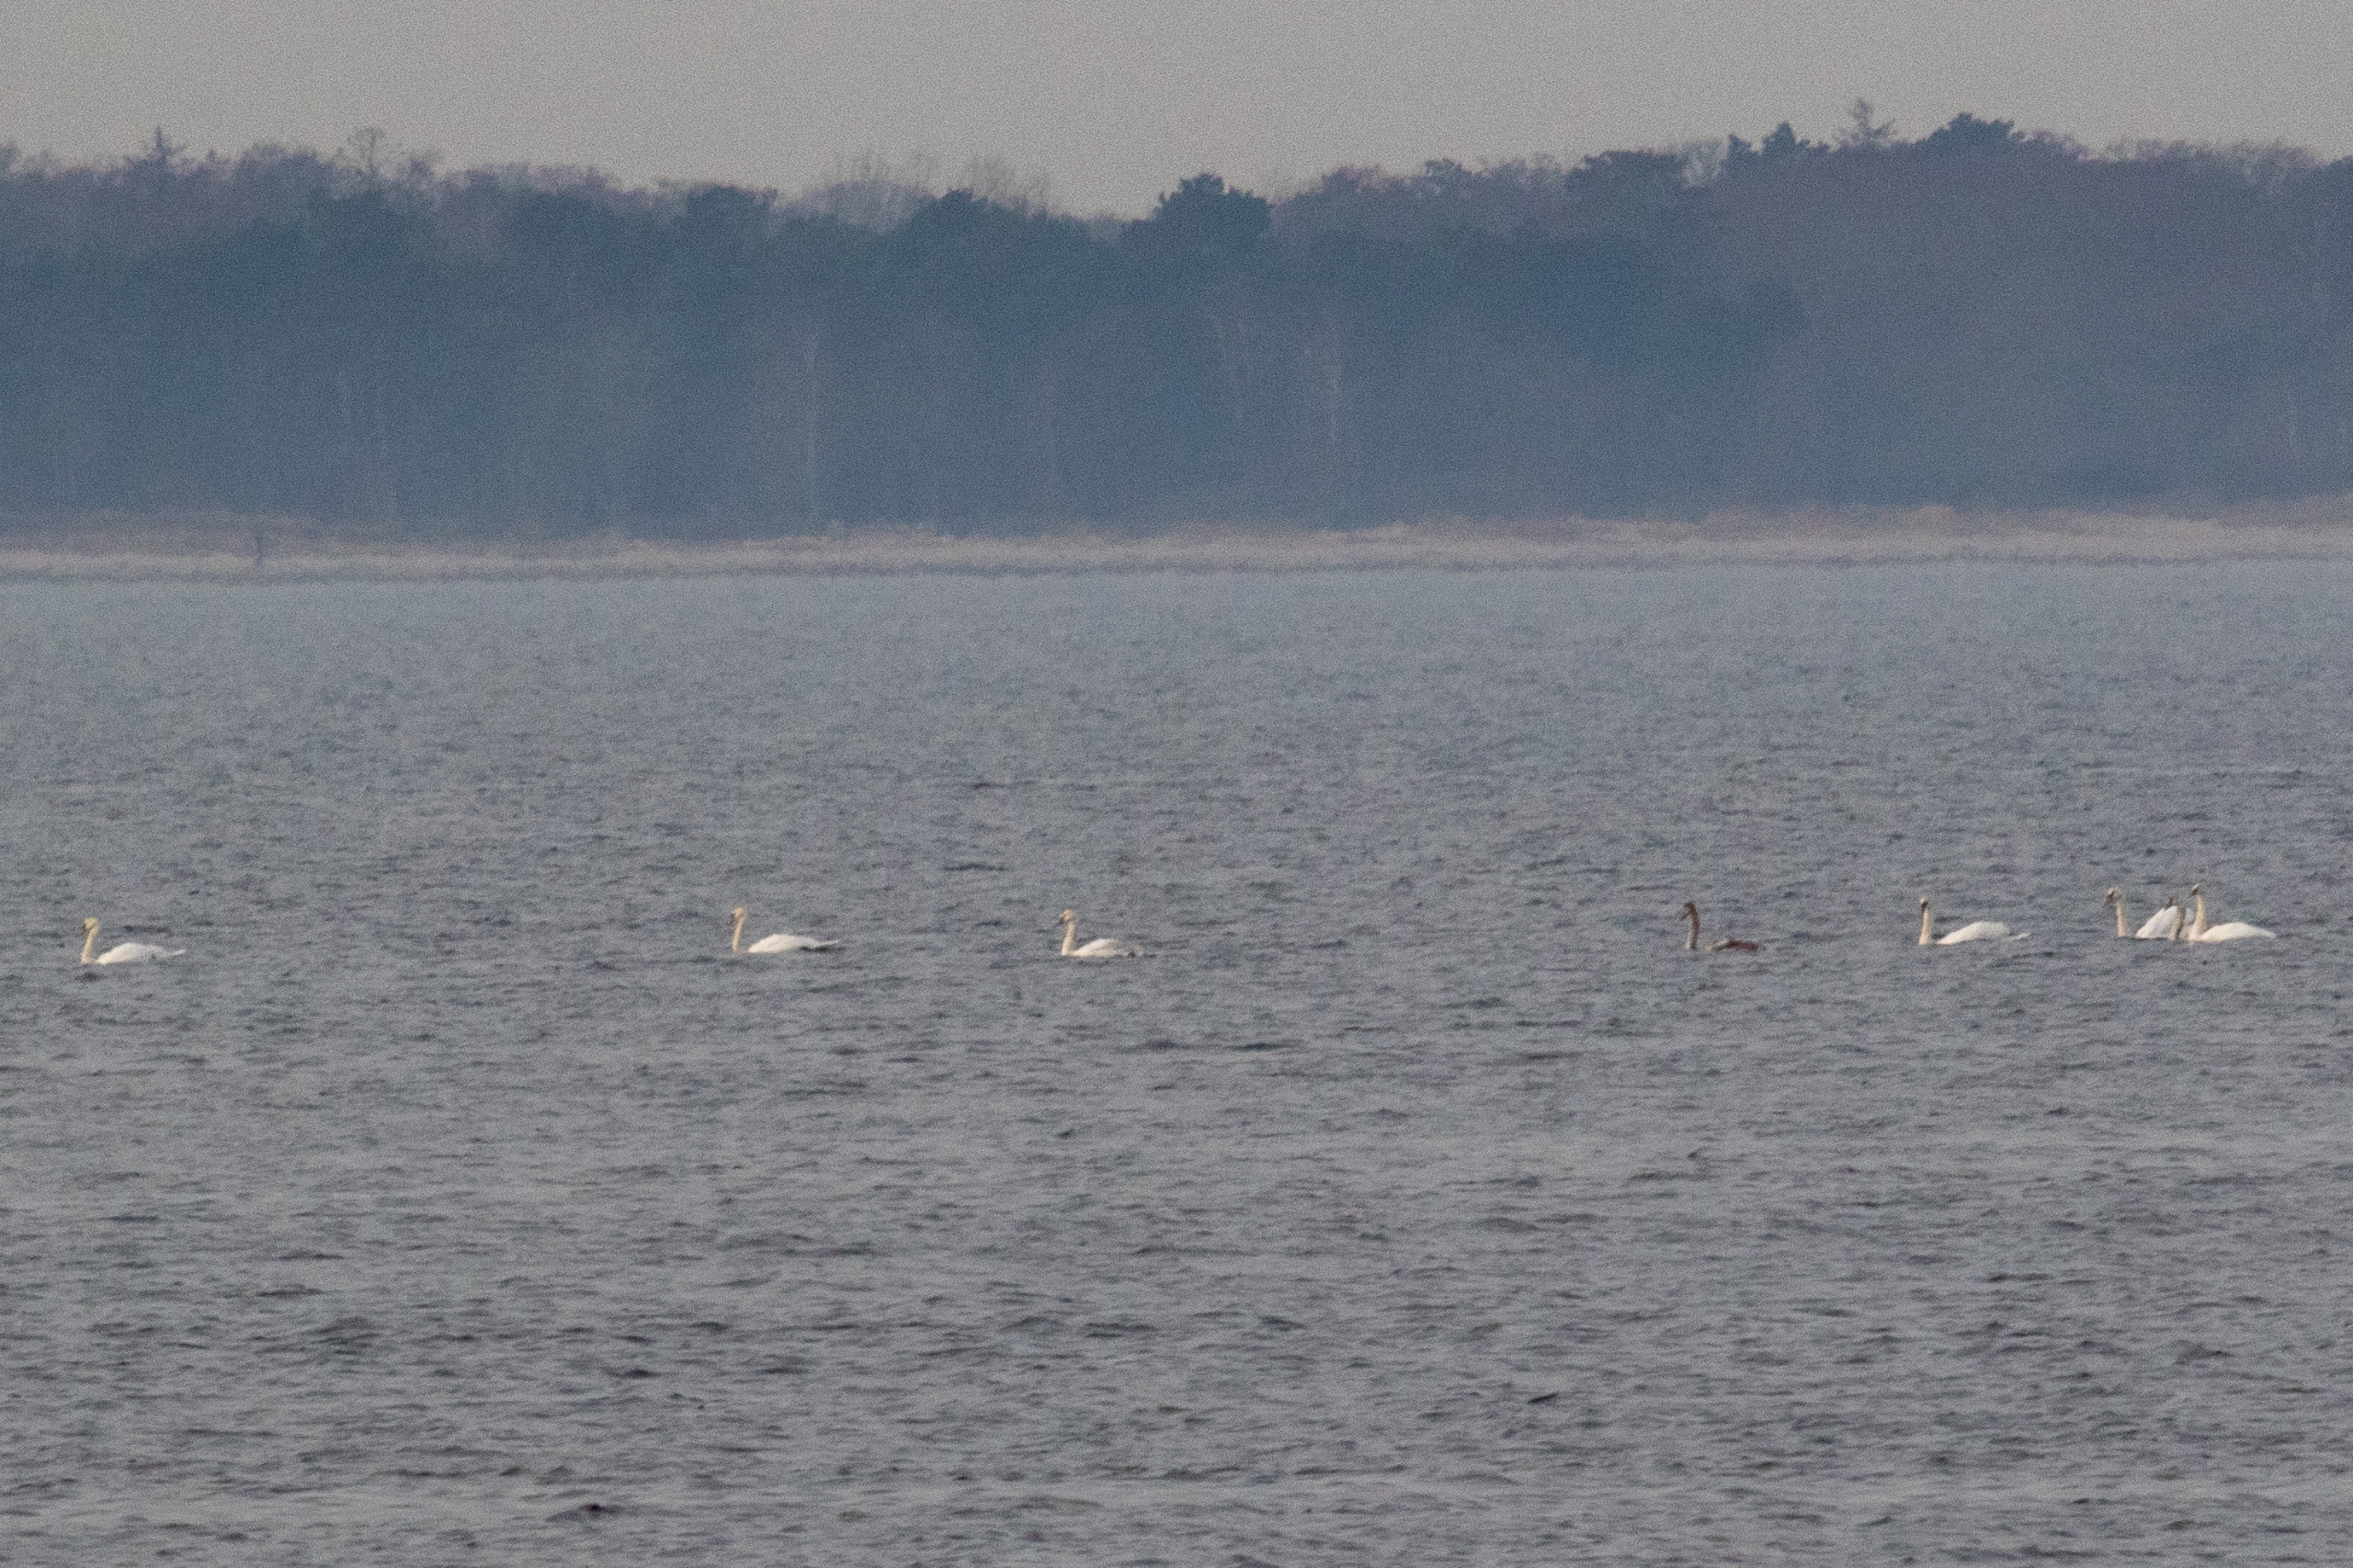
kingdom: Animalia
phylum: Chordata
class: Aves
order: Anseriformes
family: Anatidae
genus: Cygnus
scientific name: Cygnus olor
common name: Knopsvane
